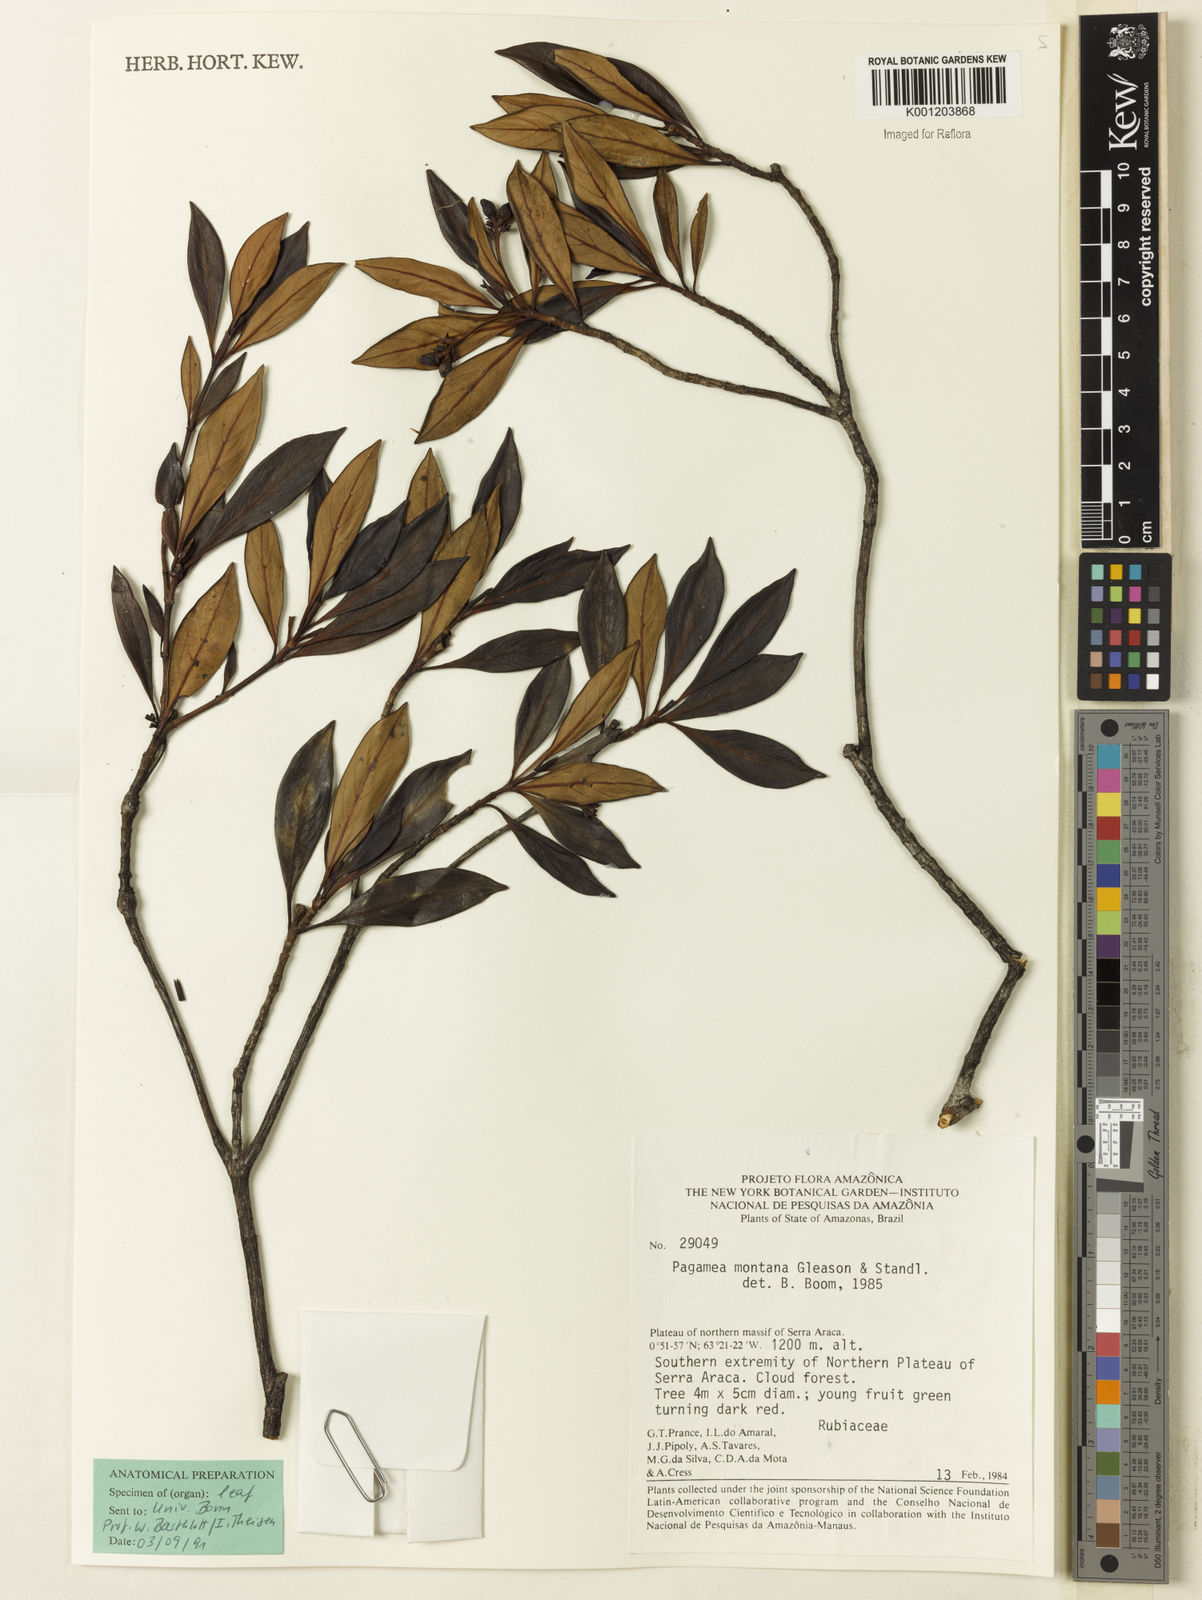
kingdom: Plantae
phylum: Tracheophyta
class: Magnoliopsida
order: Gentianales
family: Rubiaceae
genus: Pagamea
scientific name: Pagamea montana
